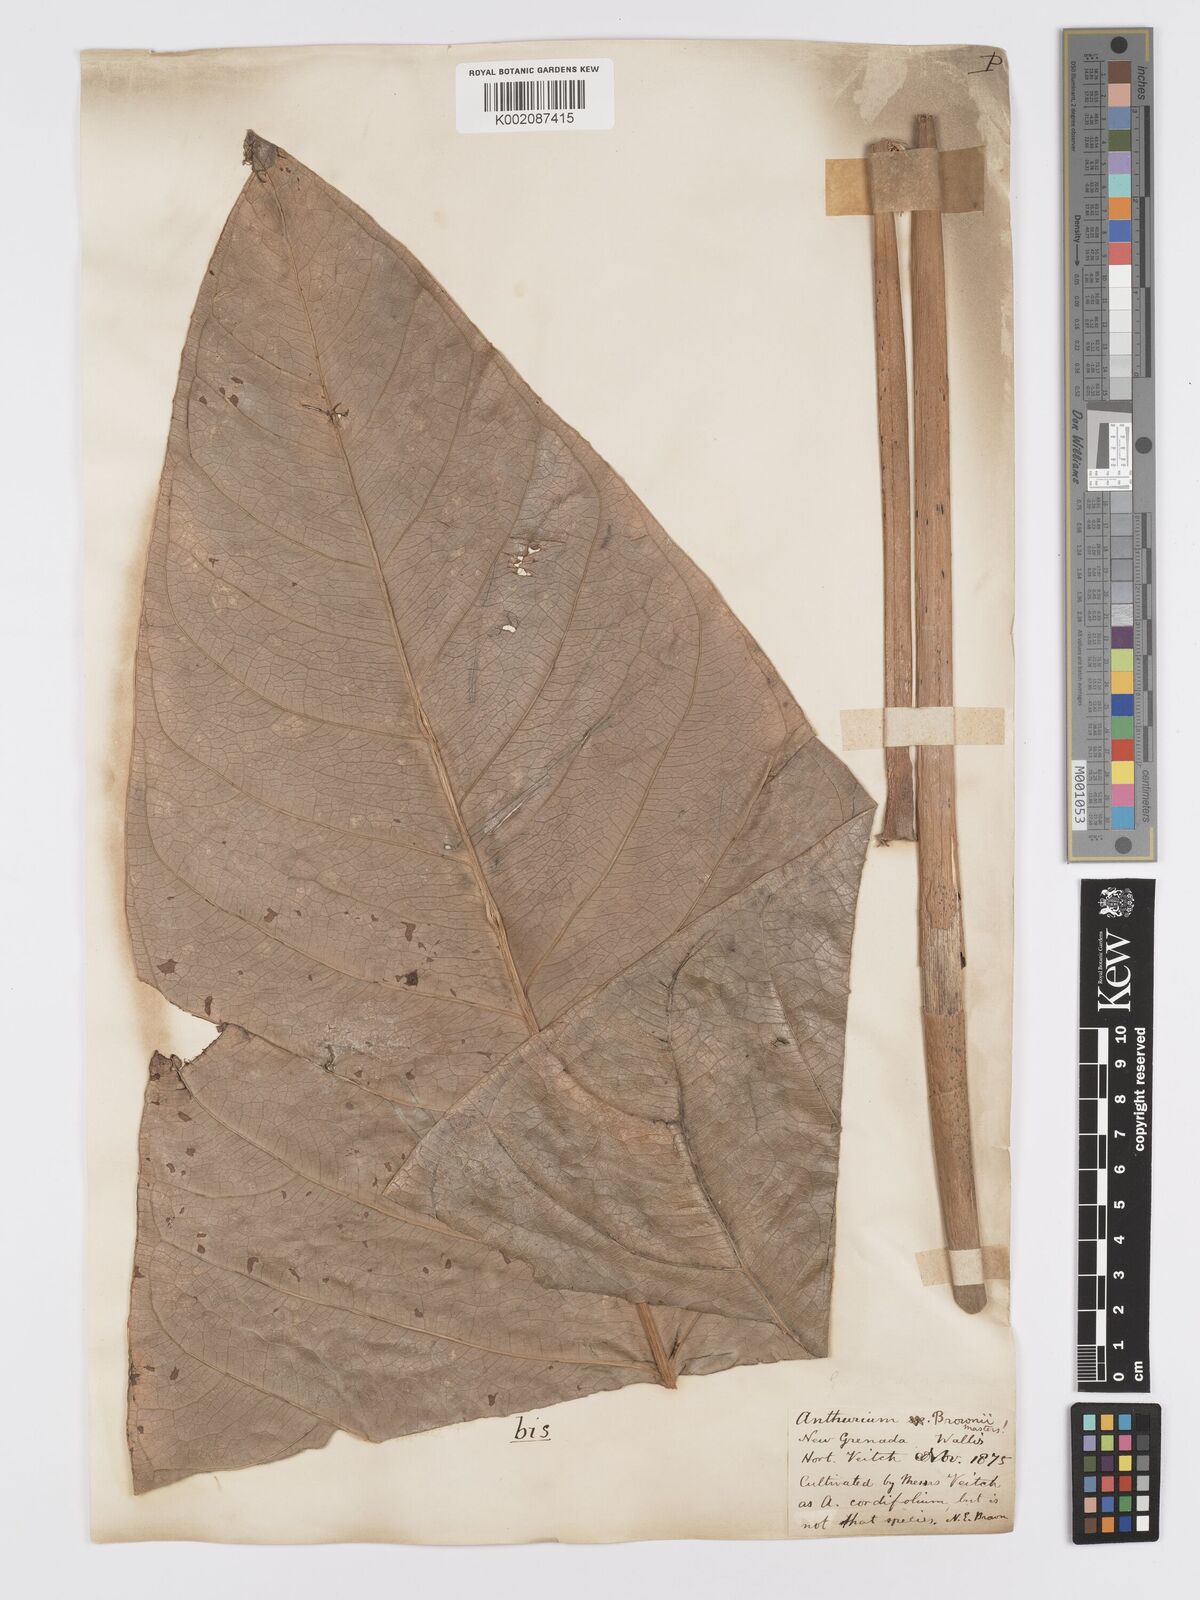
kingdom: Plantae
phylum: Tracheophyta
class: Liliopsida
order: Alismatales
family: Araceae
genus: Anthurium
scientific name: Anthurium brownii
